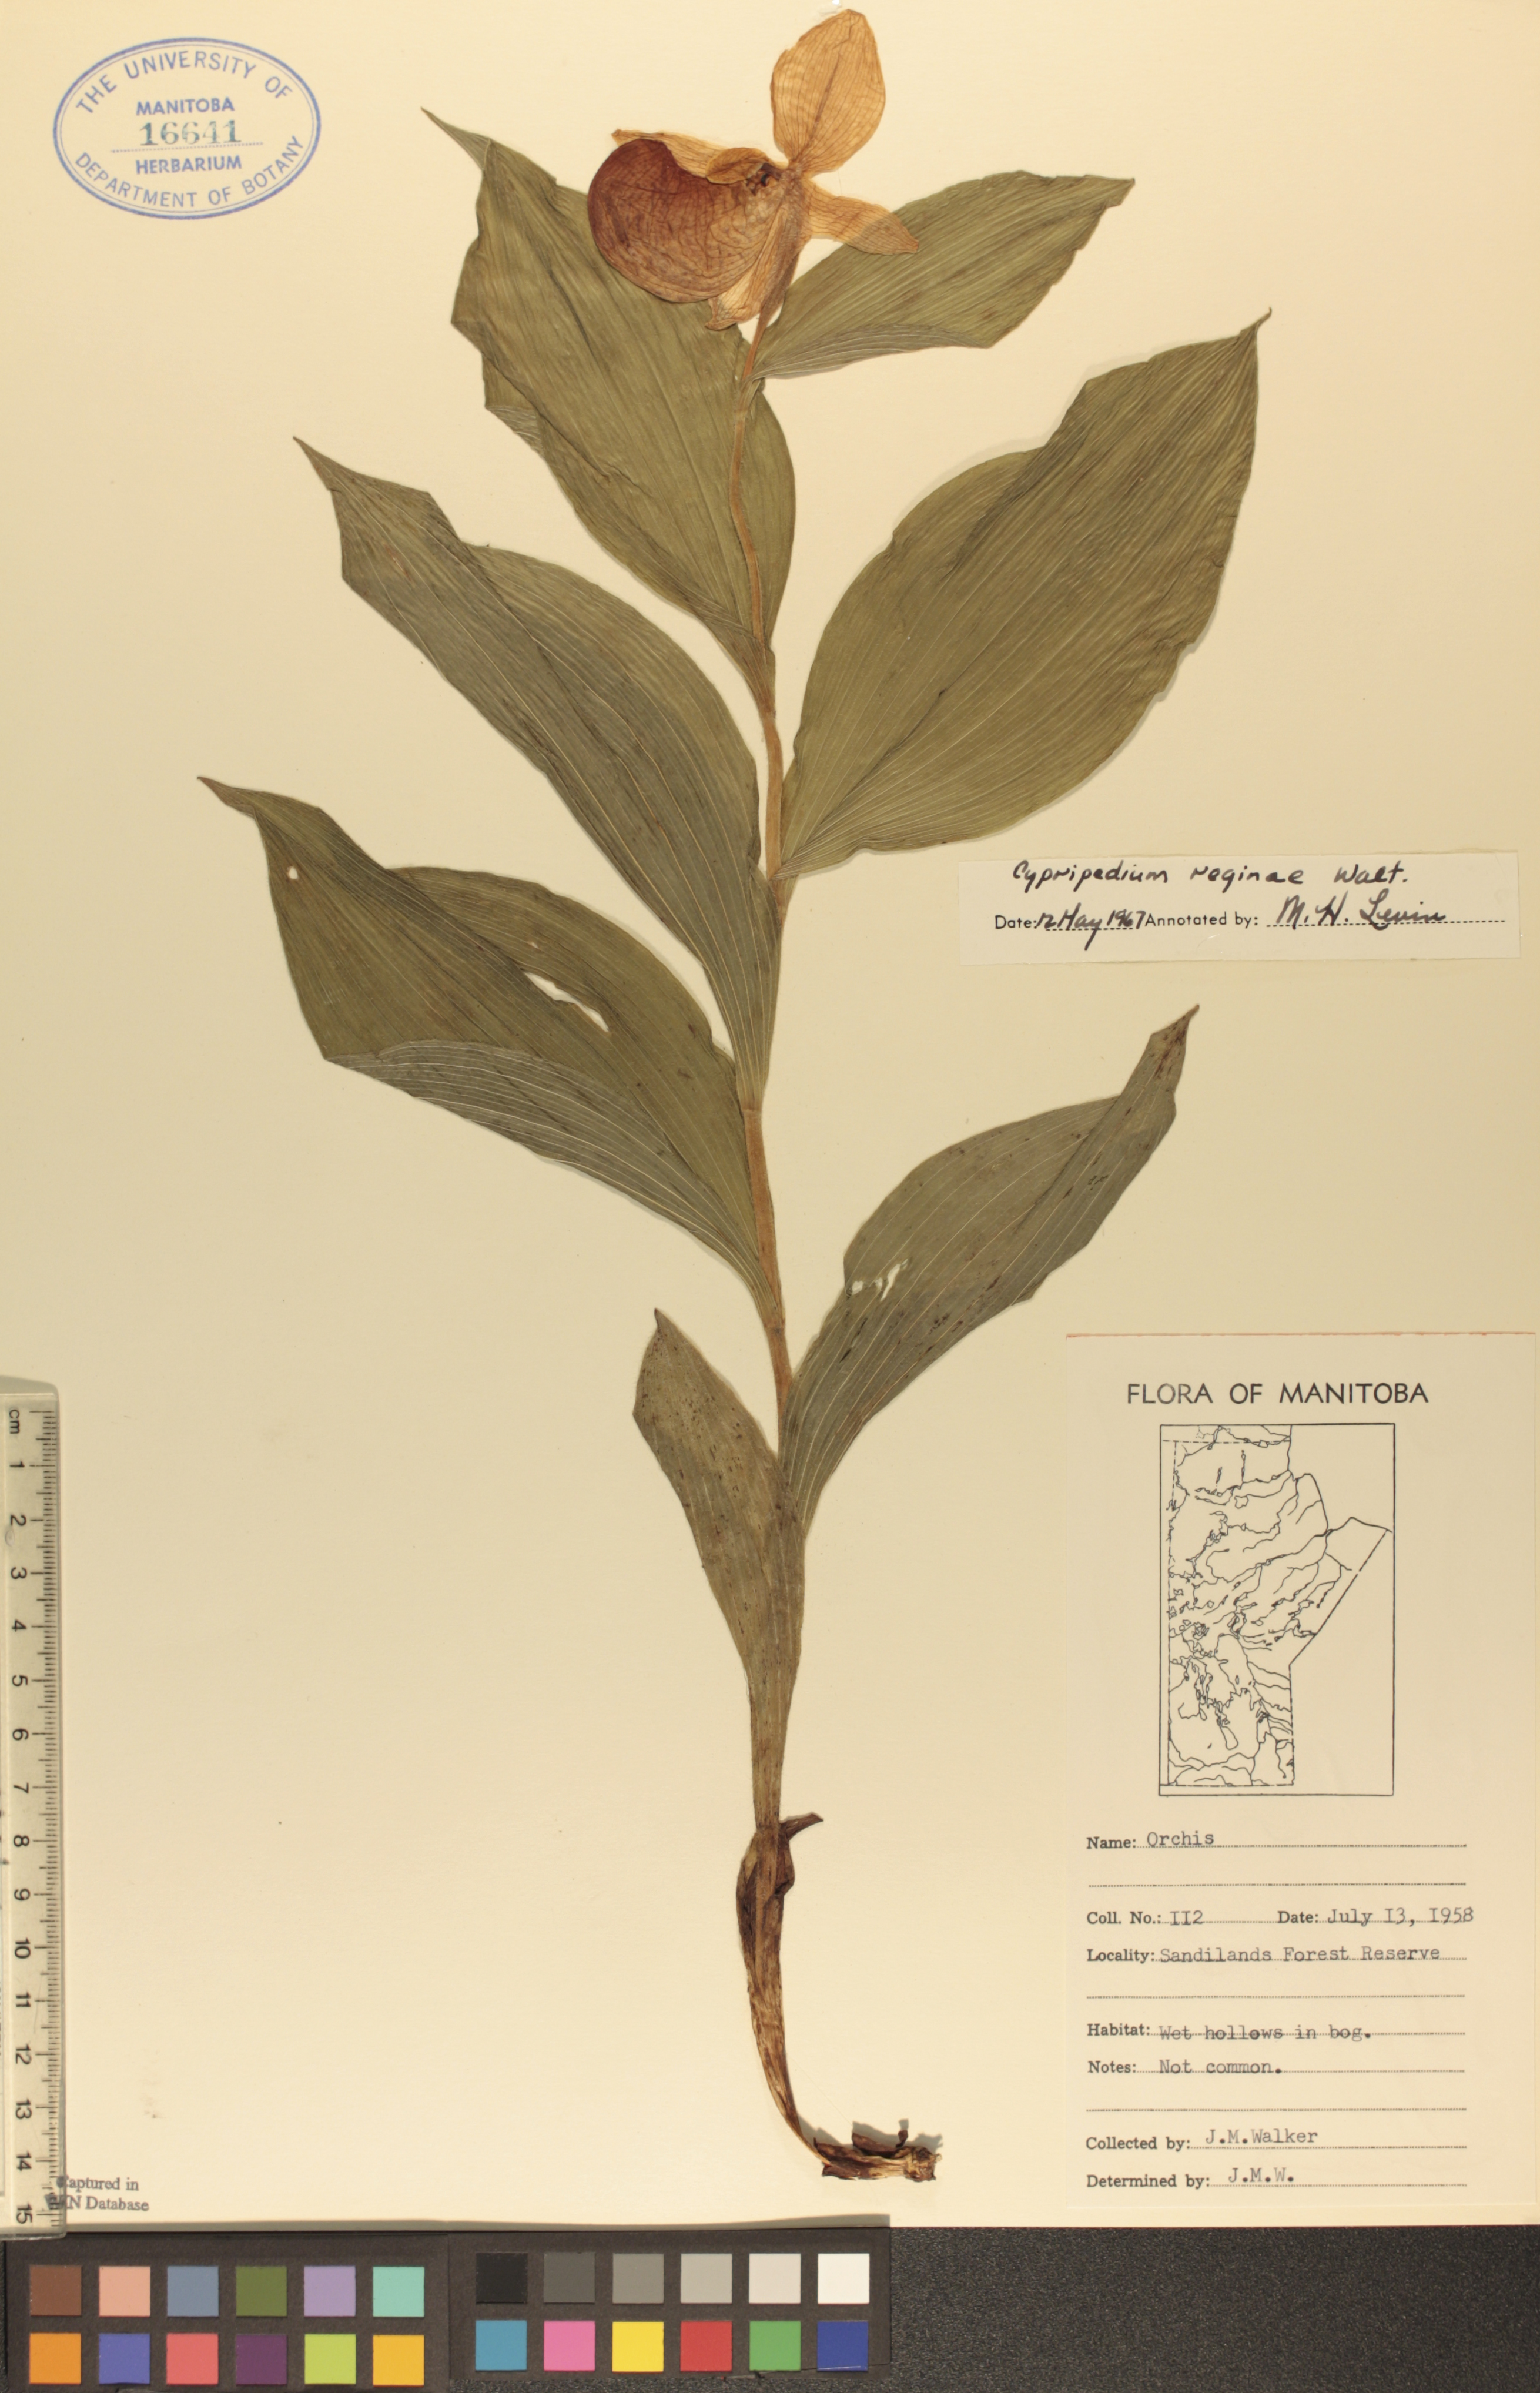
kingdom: Plantae
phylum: Tracheophyta
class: Liliopsida
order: Asparagales
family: Orchidaceae
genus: Cypripedium
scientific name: Cypripedium reginae
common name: Queen lady's-slipper
